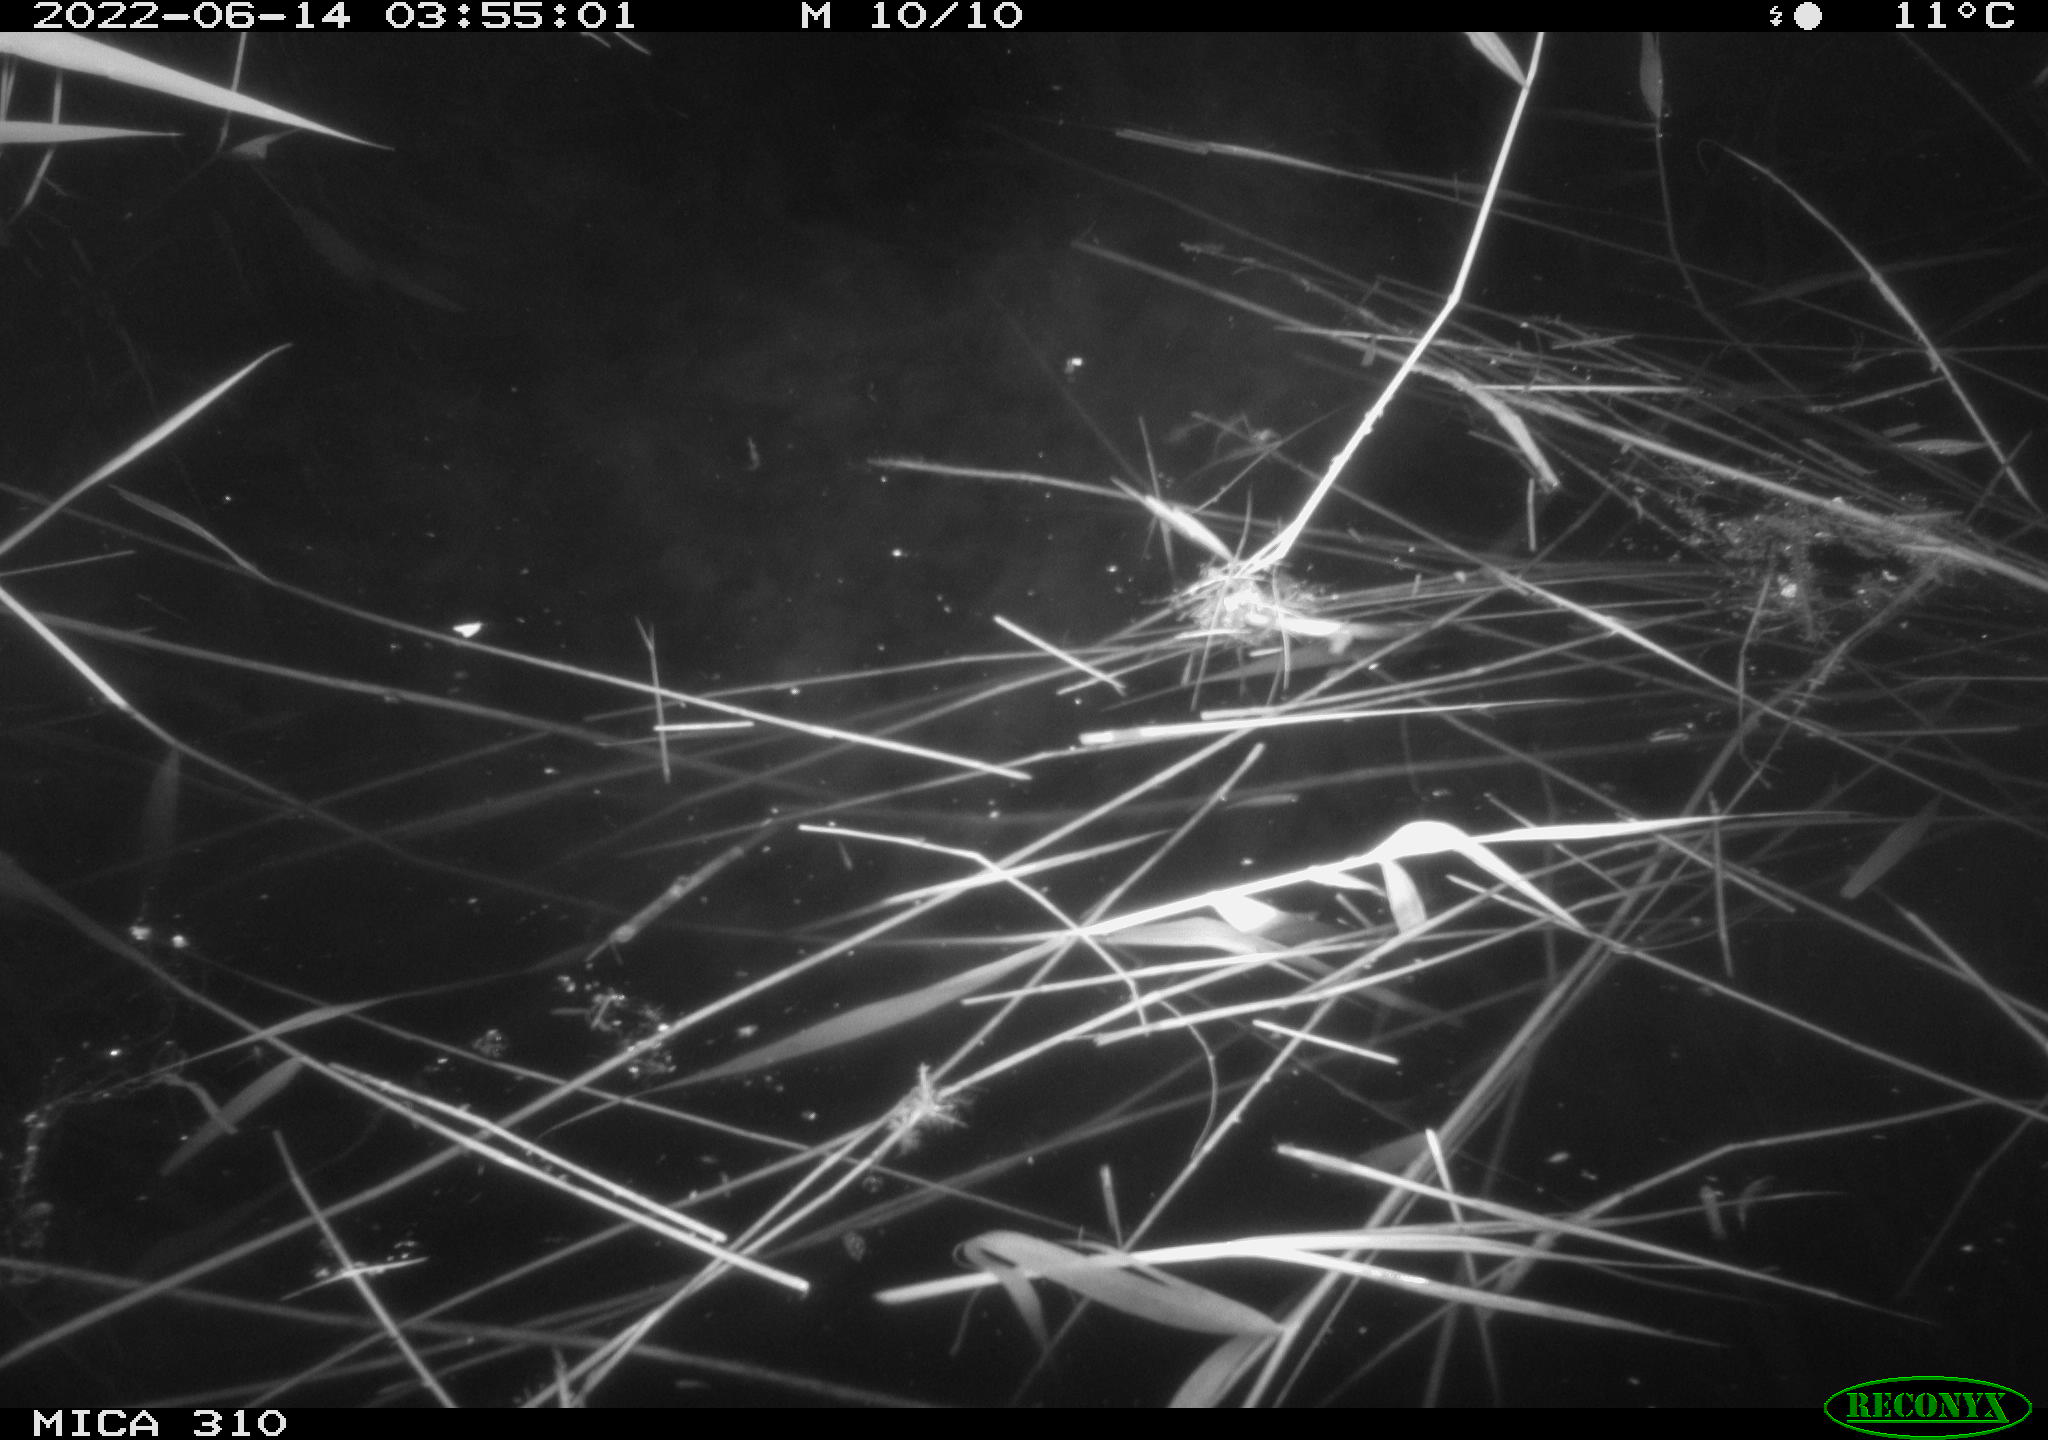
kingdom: Animalia
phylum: Chordata
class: Aves
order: Anseriformes
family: Anatidae
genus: Anas
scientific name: Anas platyrhynchos
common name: Mallard
